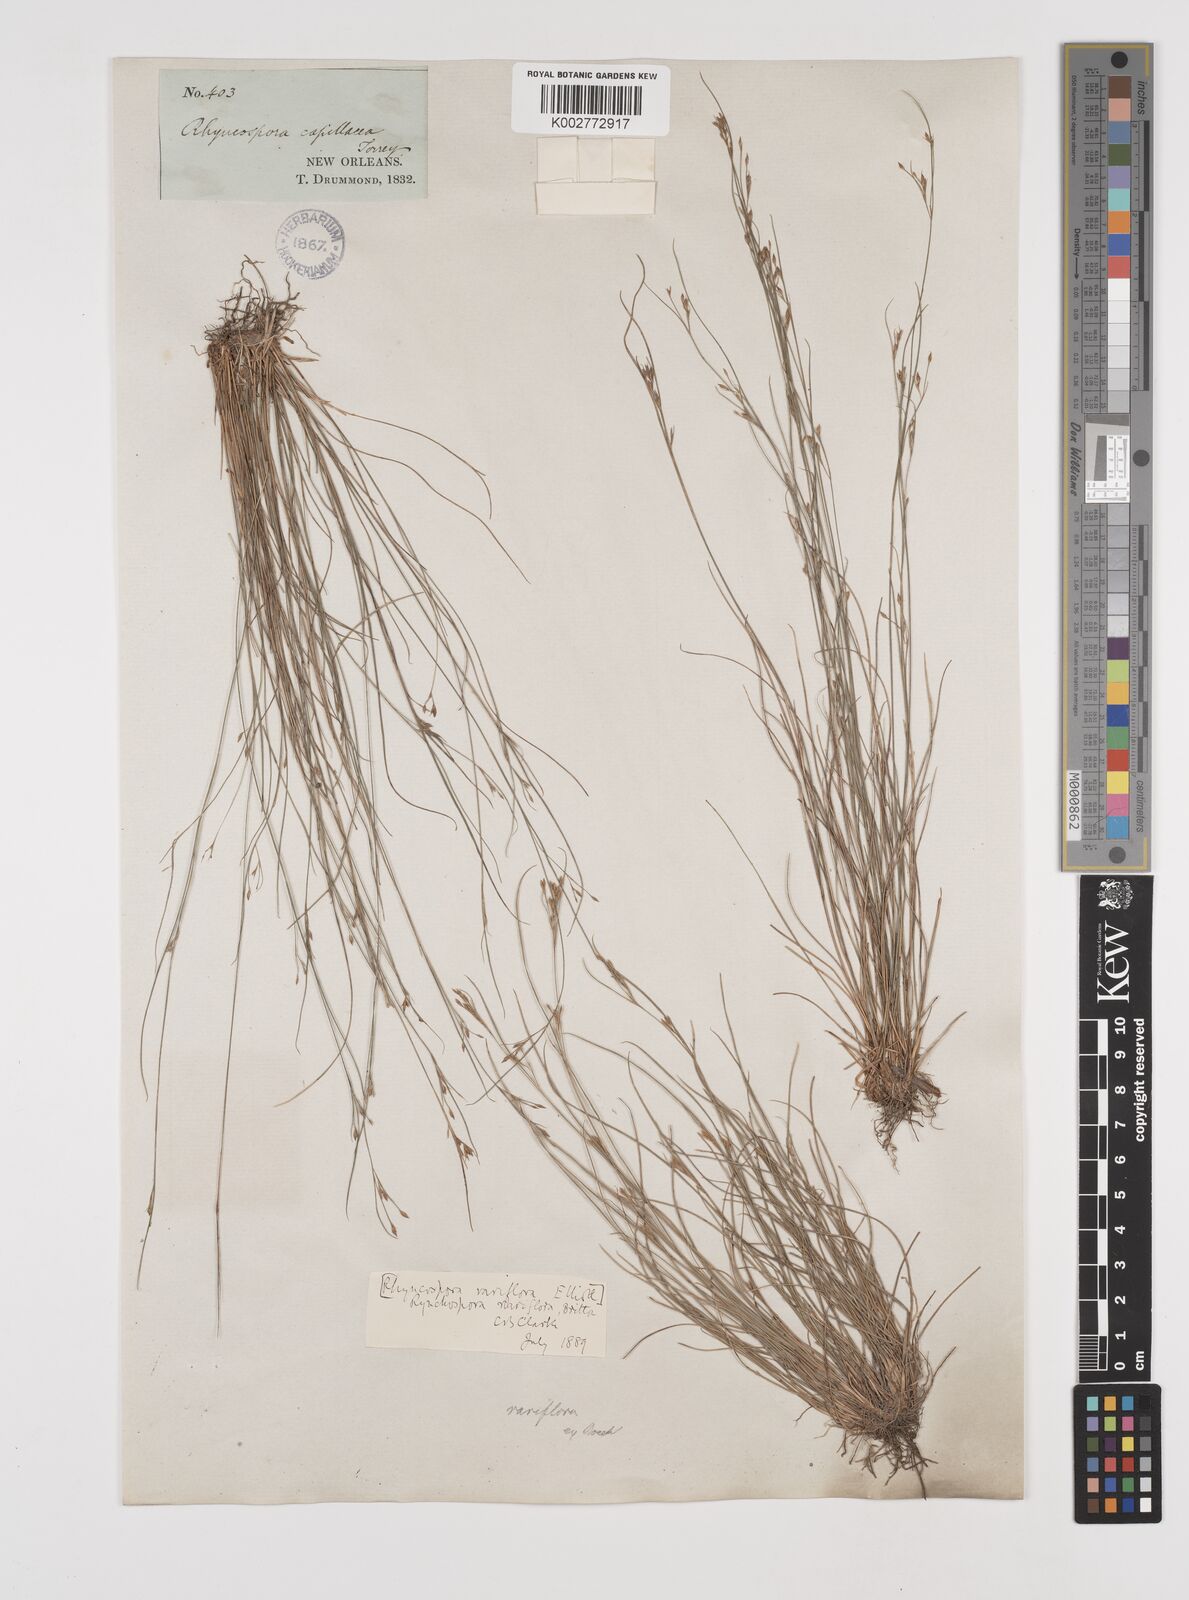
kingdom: Plantae
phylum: Tracheophyta
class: Liliopsida
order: Poales
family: Cyperaceae
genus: Rhynchospora
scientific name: Rhynchospora rariflora
